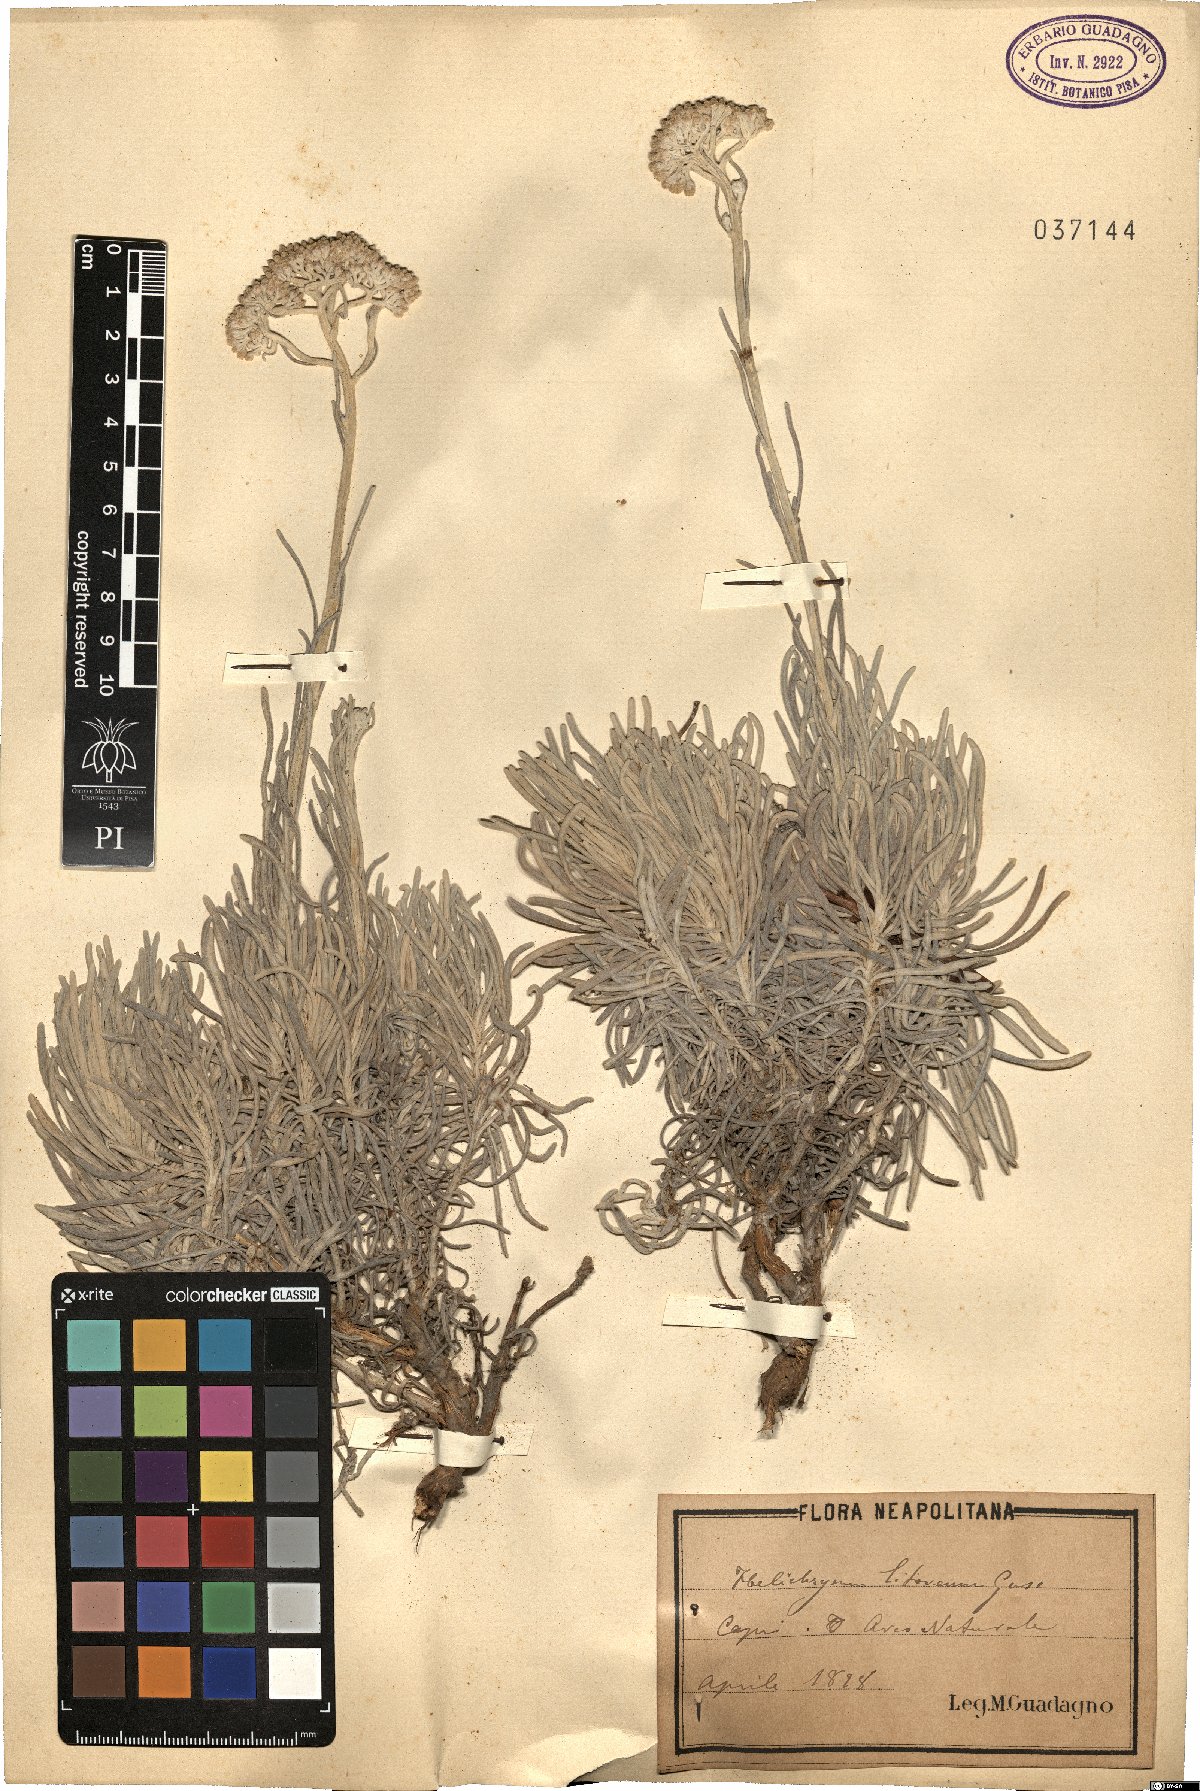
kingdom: Plantae
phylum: Tracheophyta
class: Magnoliopsida
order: Asterales
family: Asteraceae
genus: Helichrysum
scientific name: Helichrysum litoreum
